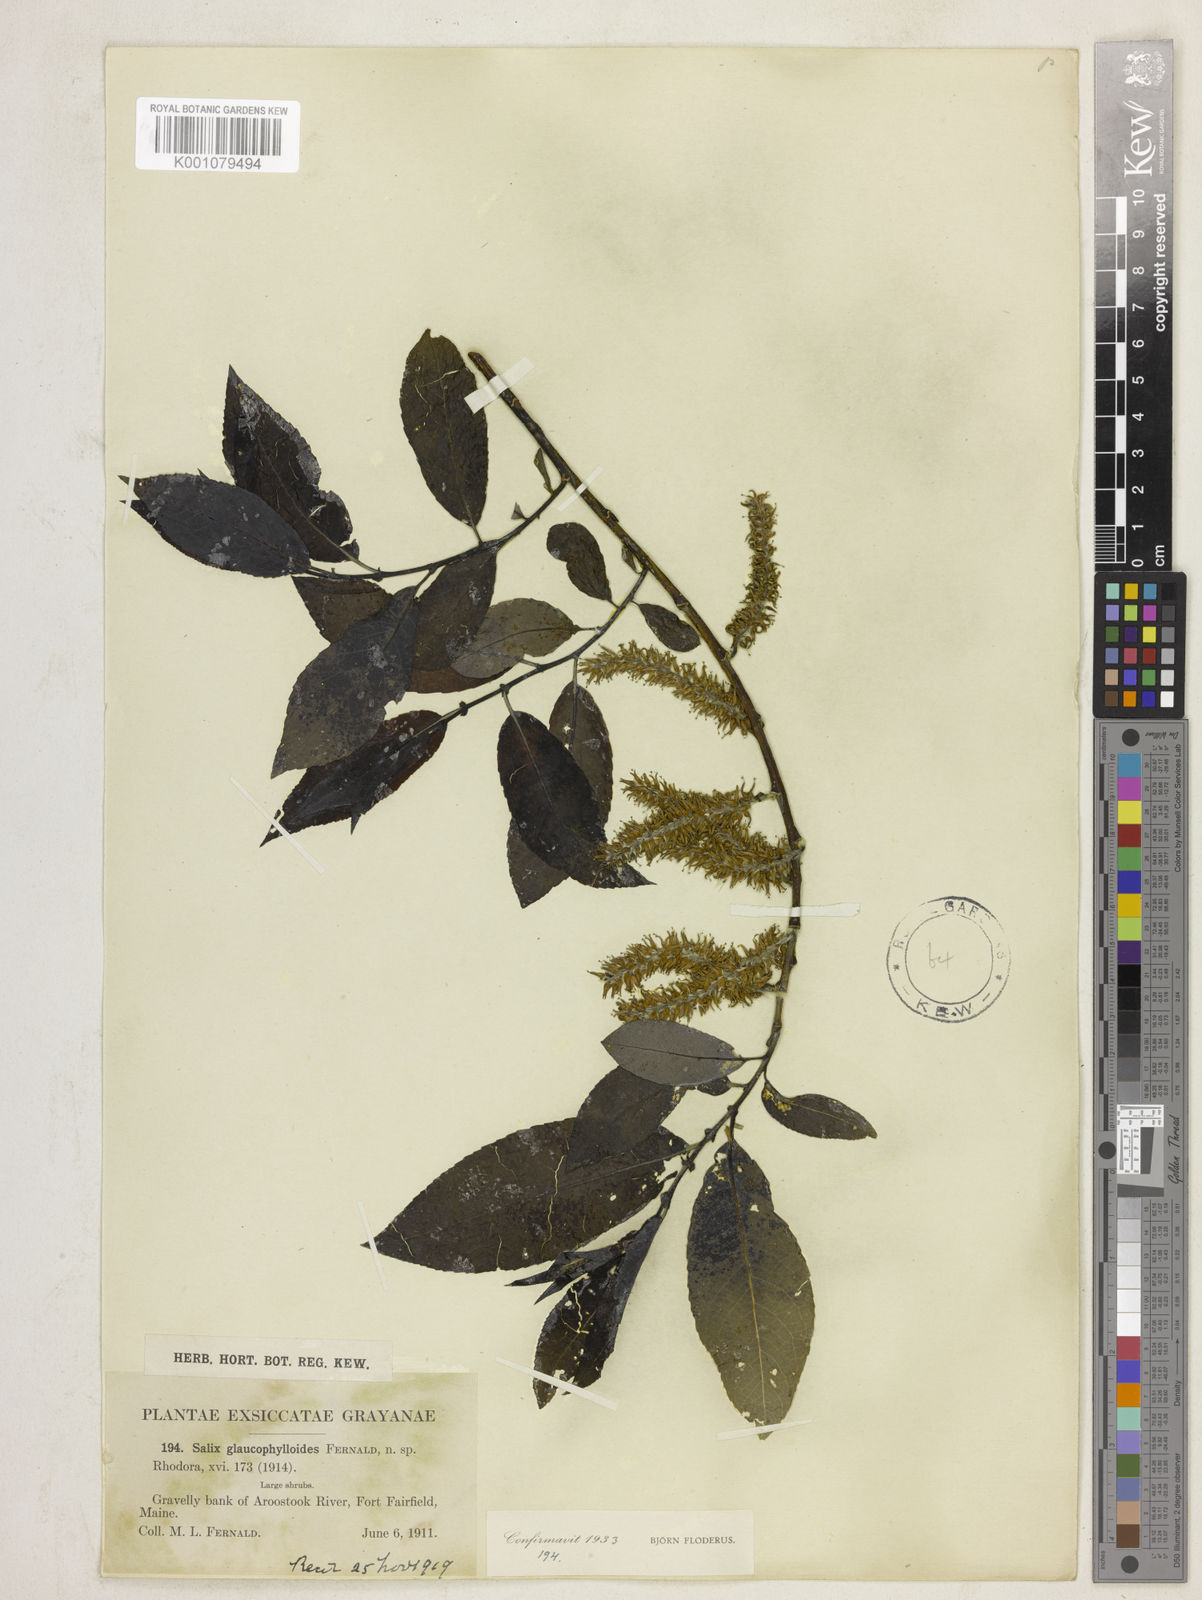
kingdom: Plantae
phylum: Tracheophyta
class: Magnoliopsida
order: Malpighiales
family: Salicaceae
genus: Salix
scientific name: Salix myricoides
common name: Bayberry willow
